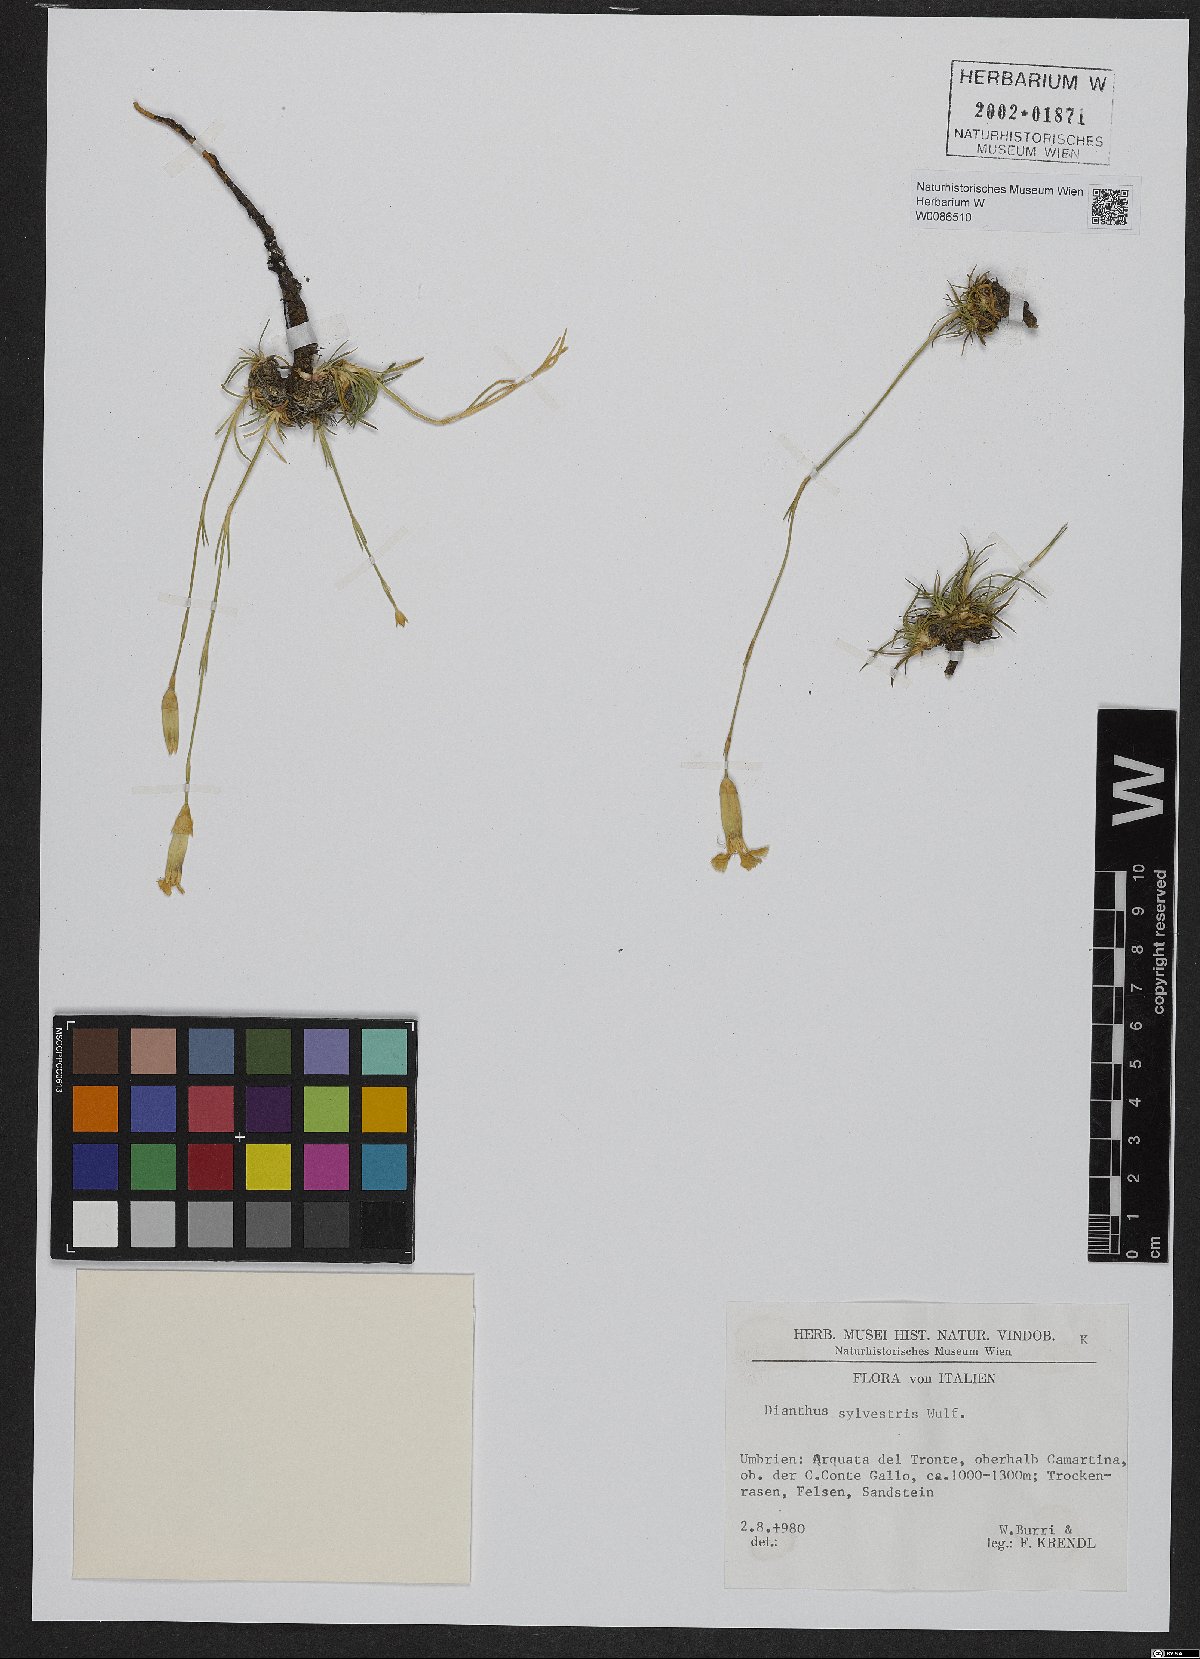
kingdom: Plantae
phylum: Tracheophyta
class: Magnoliopsida
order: Caryophyllales
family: Caryophyllaceae
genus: Dianthus
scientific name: Dianthus sylvestris
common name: Wood pink
